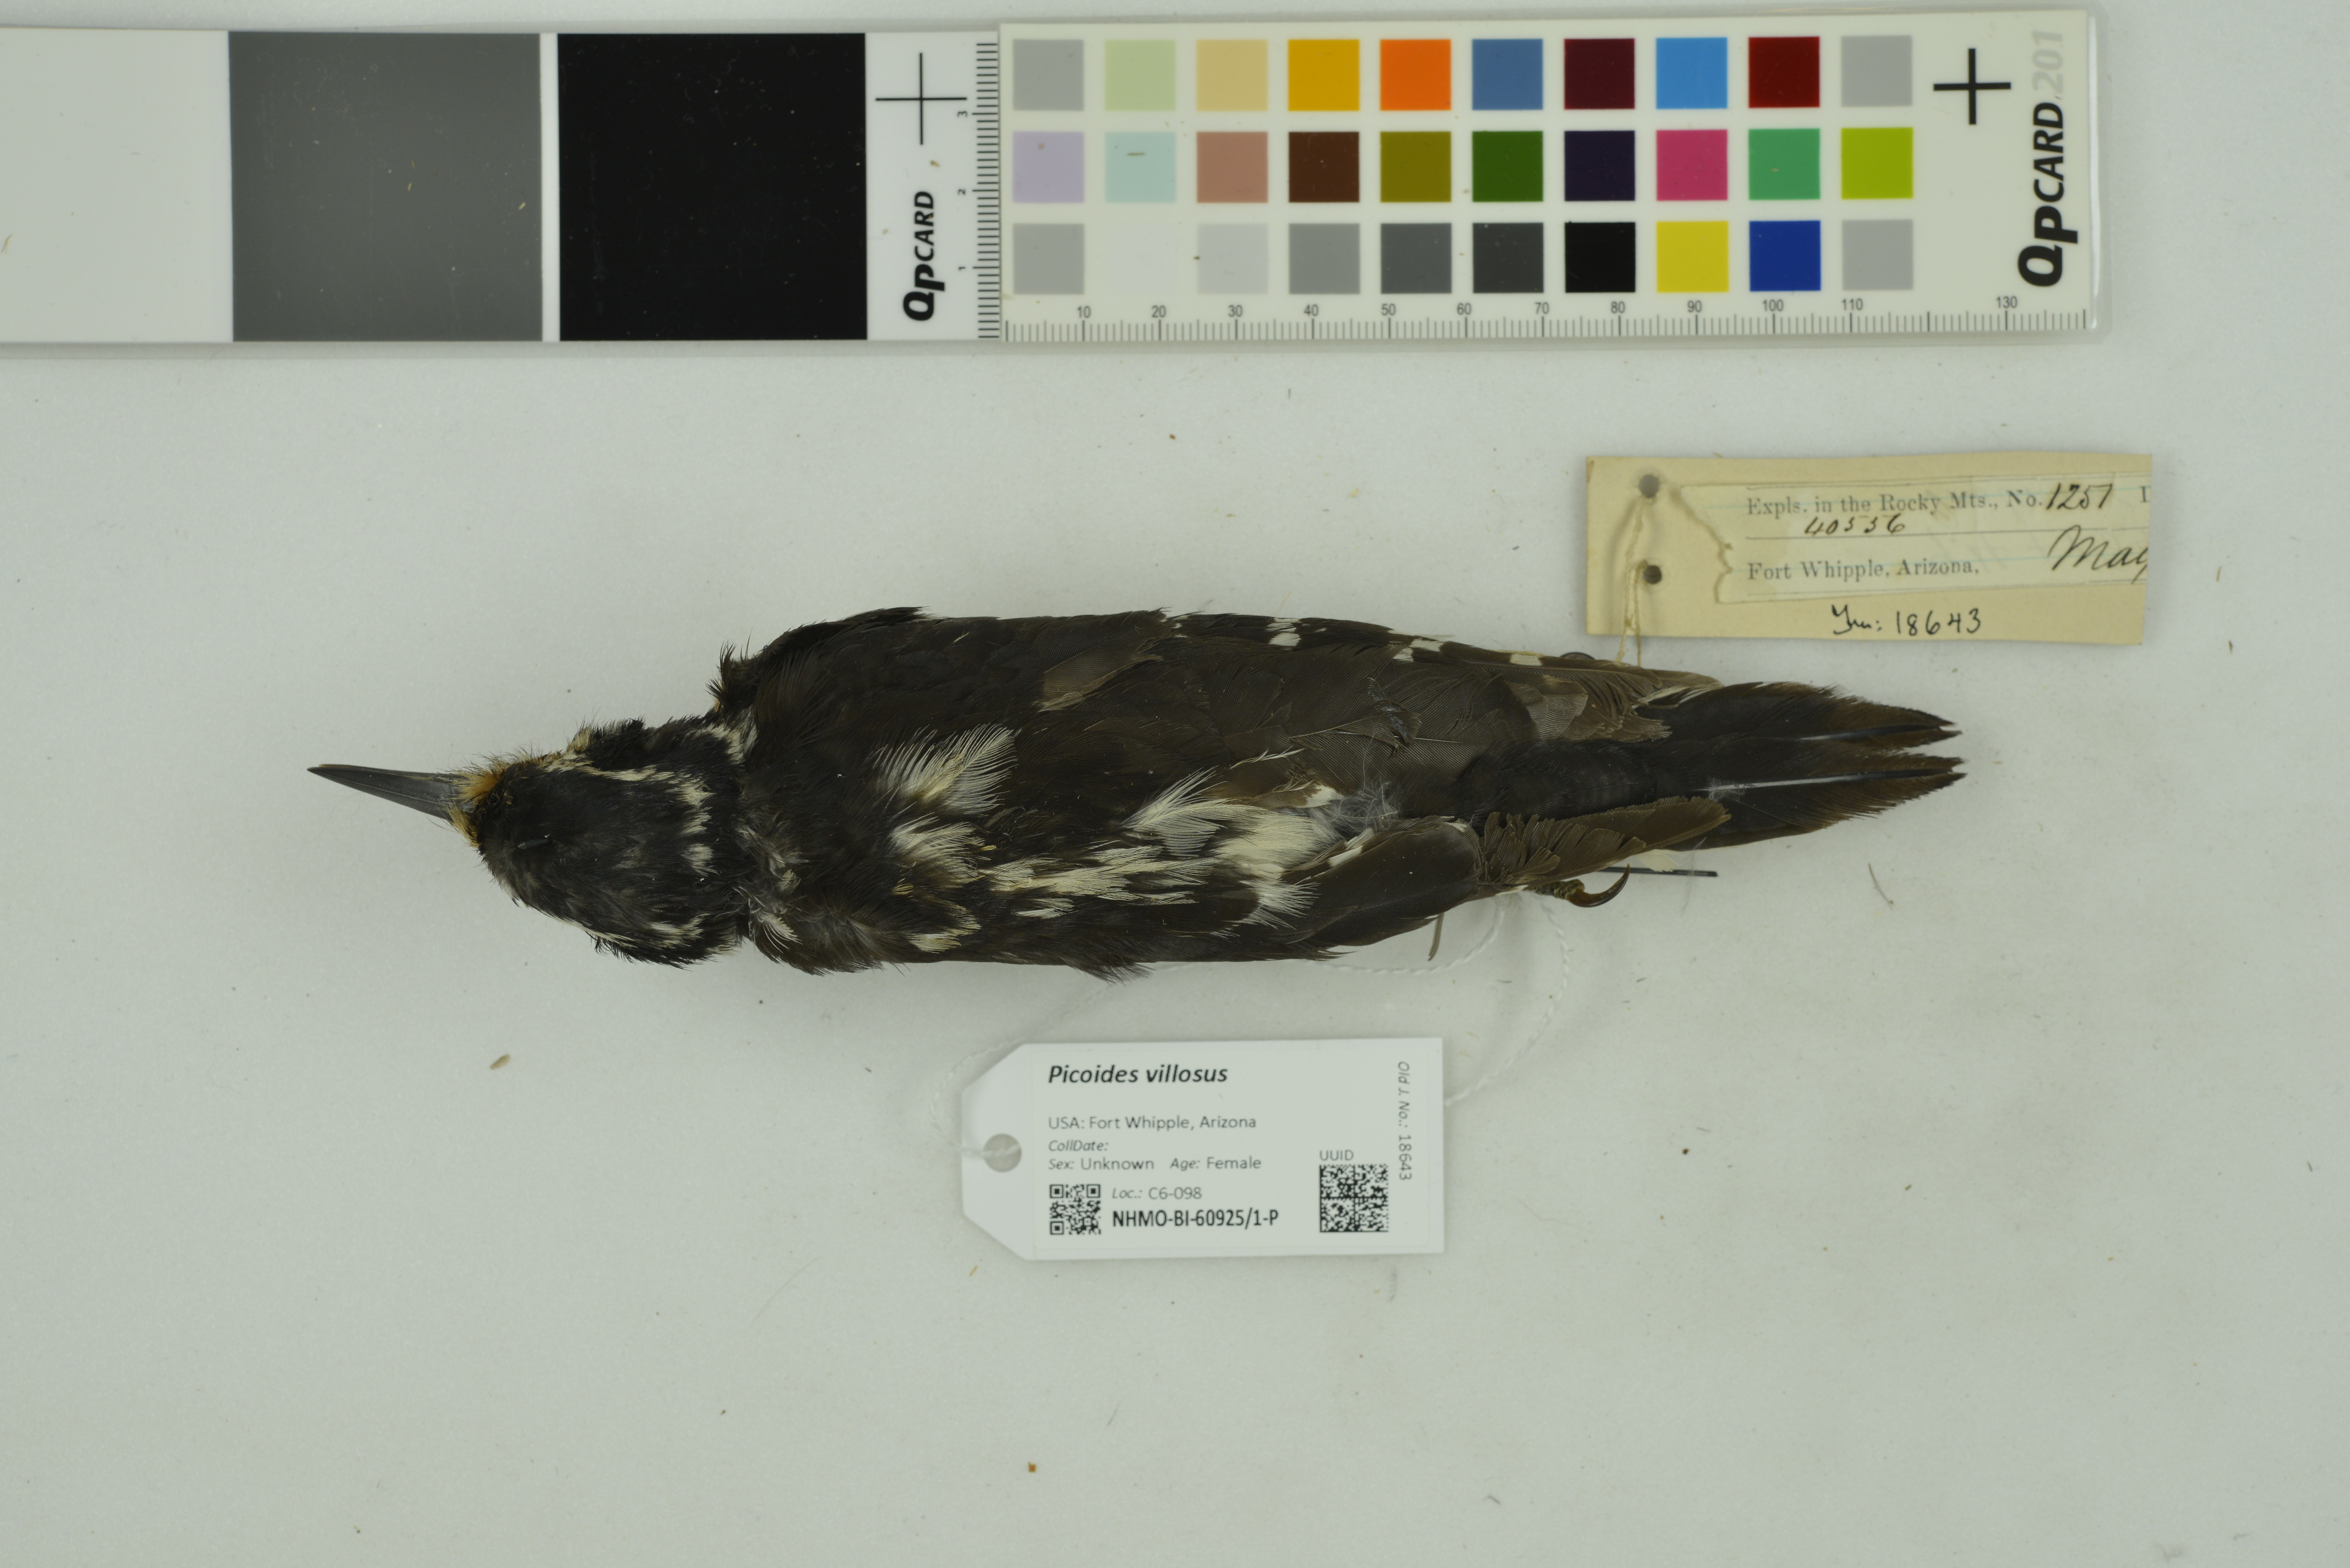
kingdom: Animalia
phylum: Chordata
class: Aves
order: Piciformes
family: Picidae
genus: Leuconotopicus
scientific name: Leuconotopicus villosus
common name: Hairy woodpecker
